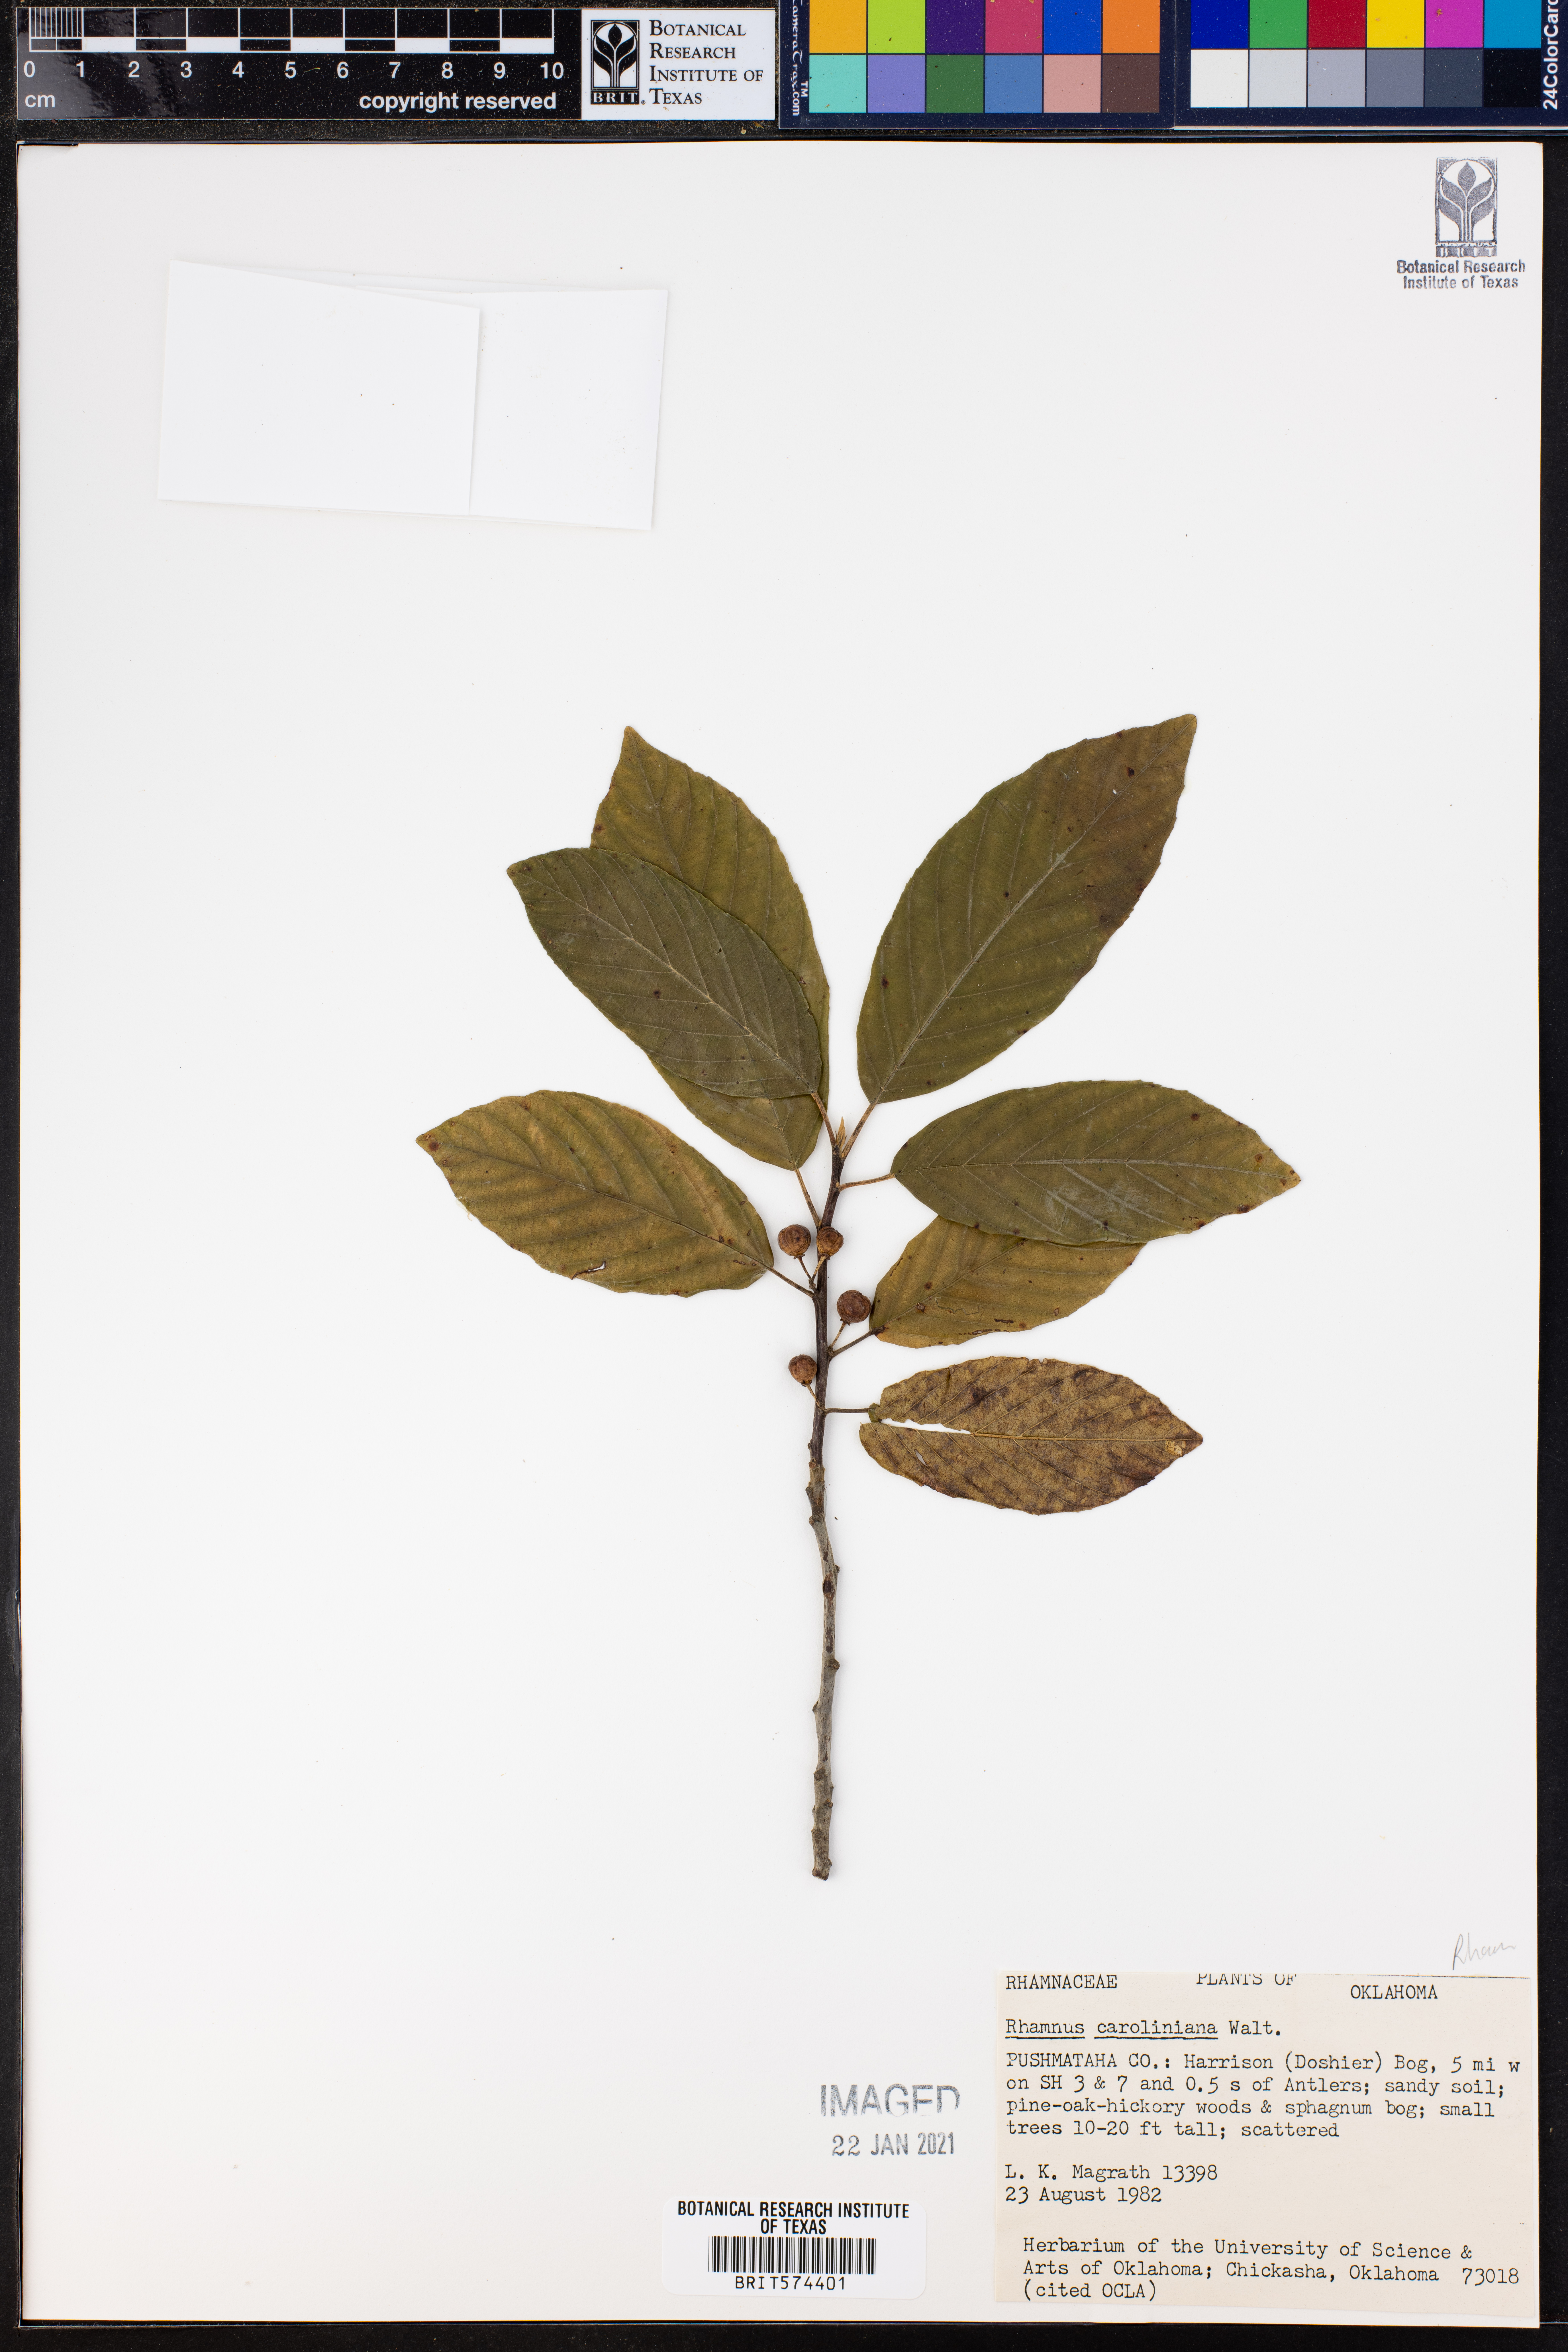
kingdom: Plantae
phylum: Tracheophyta
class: Magnoliopsida
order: Rosales
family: Rhamnaceae
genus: Frangula
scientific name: Frangula caroliniana
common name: Carolina buckthorn
